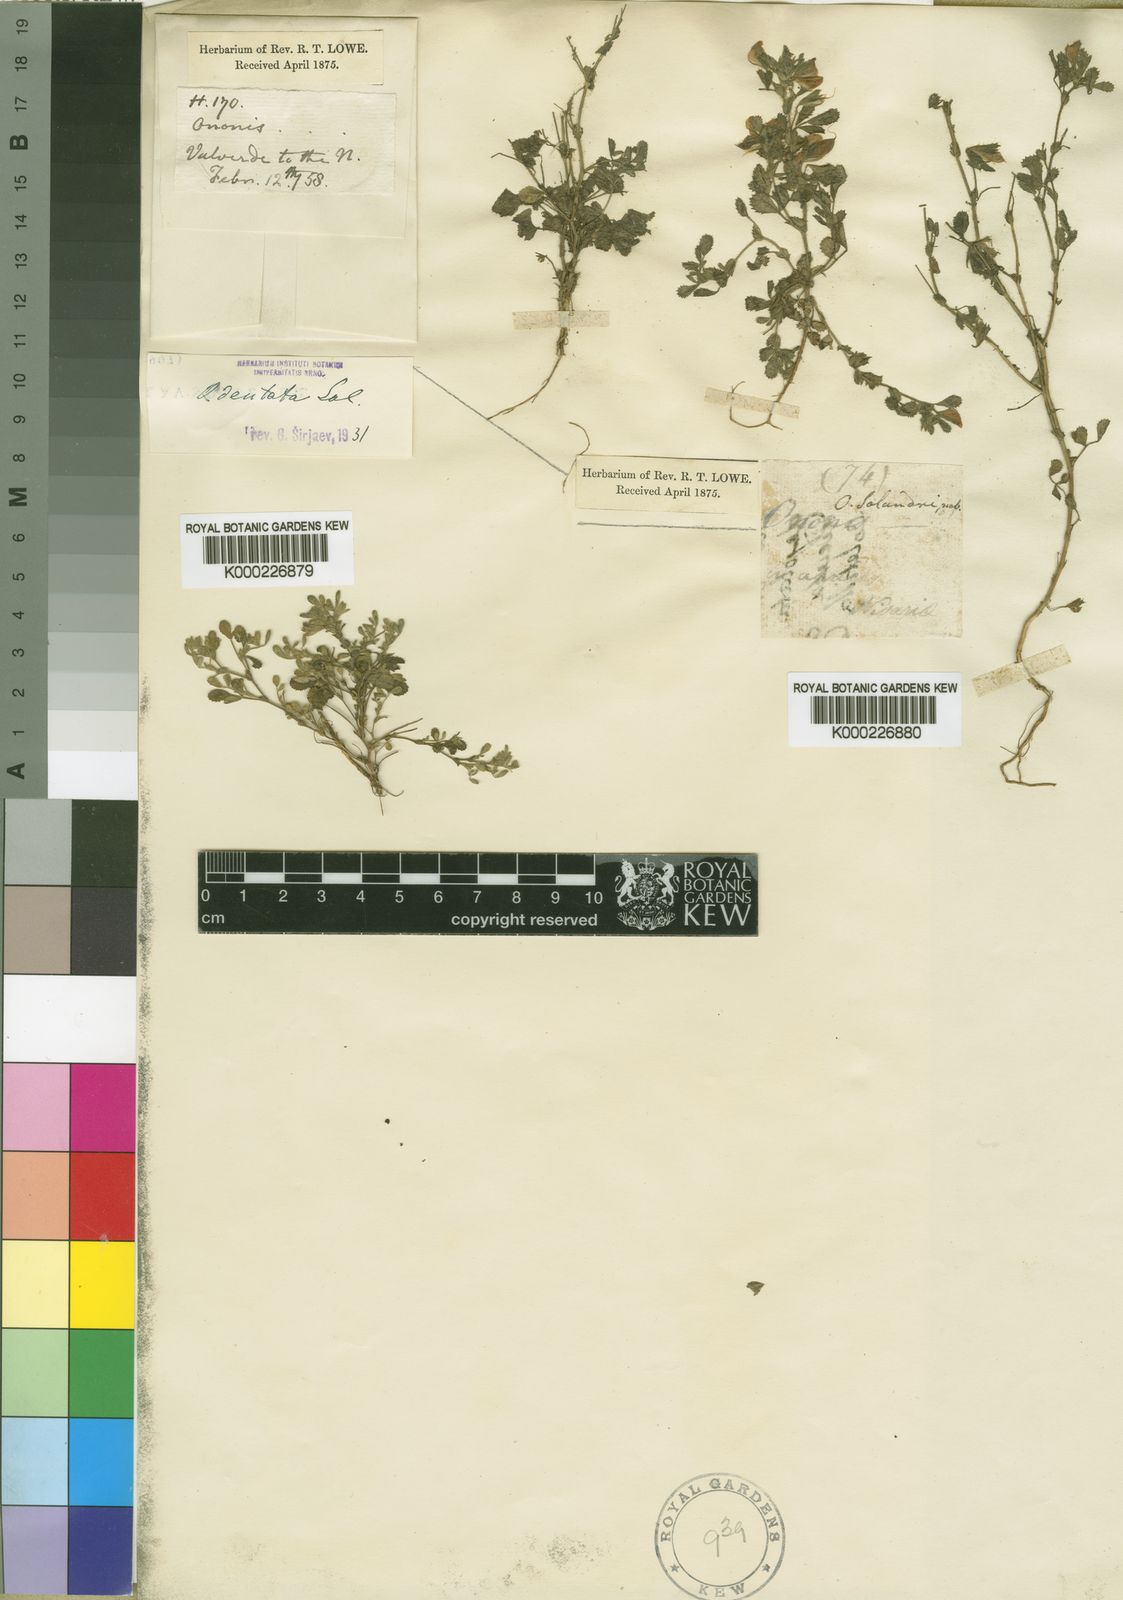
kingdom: Plantae
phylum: Tracheophyta
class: Magnoliopsida
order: Fabales
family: Fabaceae
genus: Ononis
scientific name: Ononis
